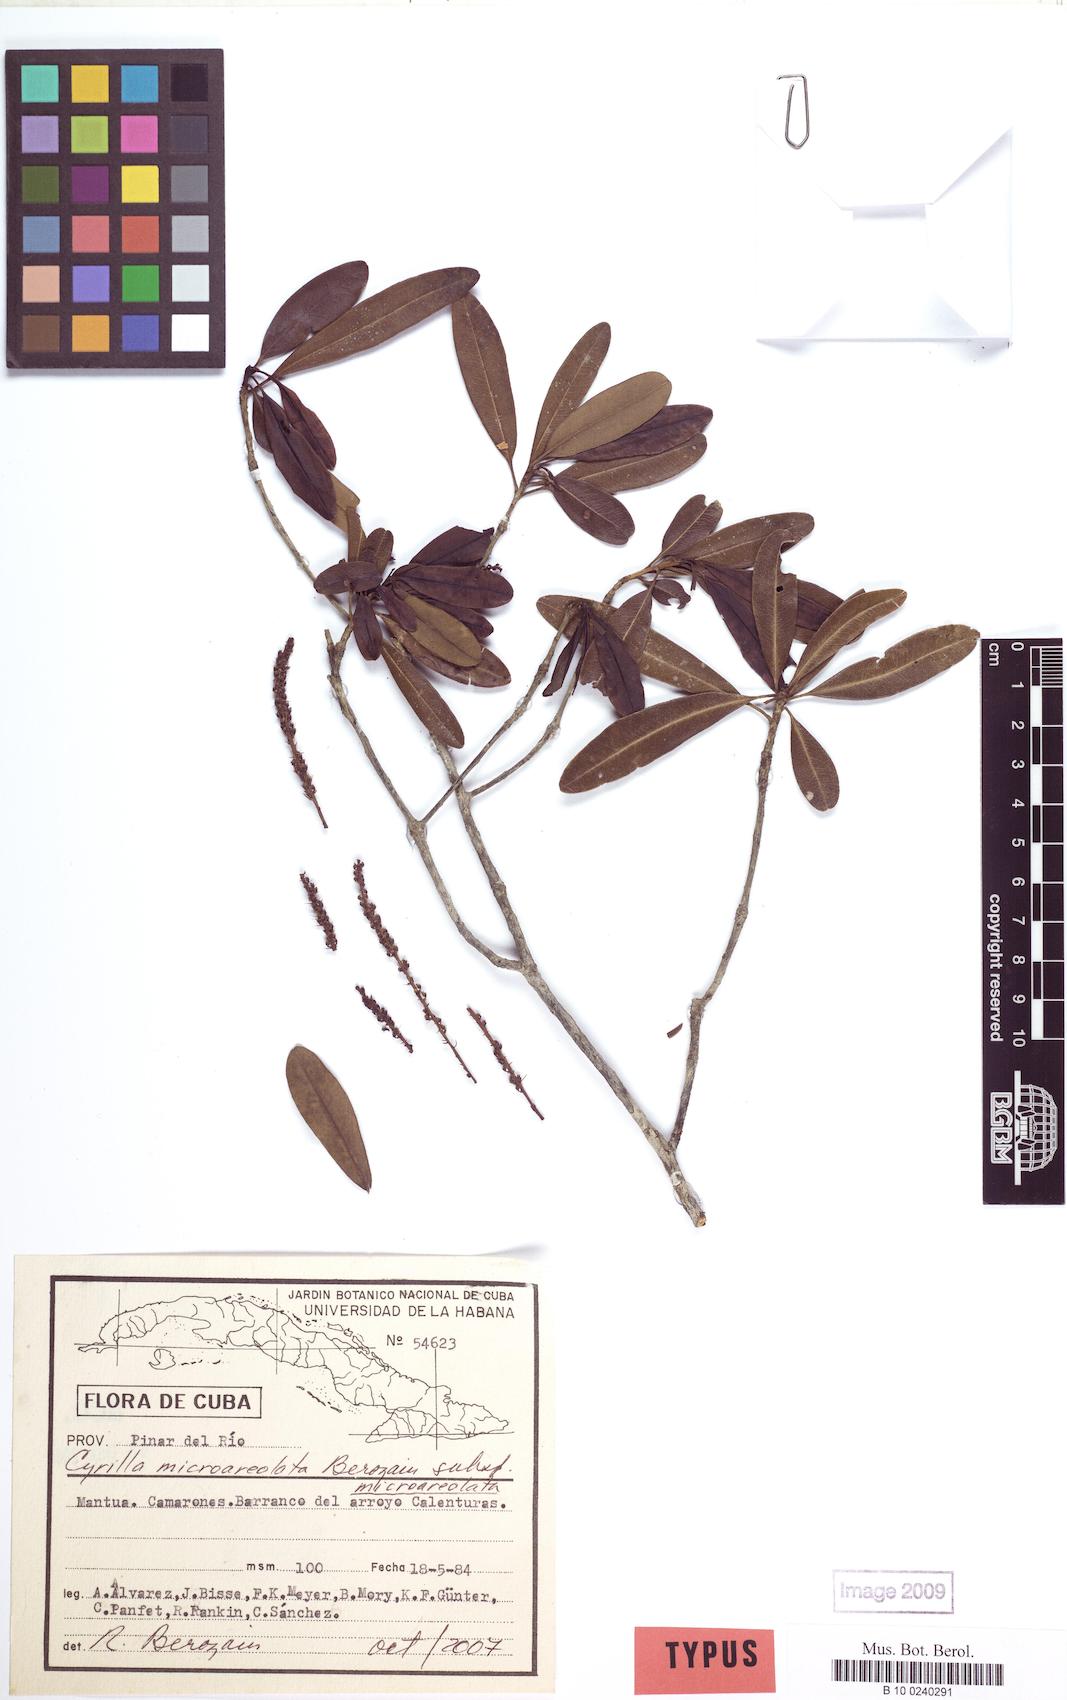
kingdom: Plantae
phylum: Tracheophyta
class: Magnoliopsida
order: Ericales
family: Cyrillaceae
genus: Cyrilla
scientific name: Cyrilla microareolata
